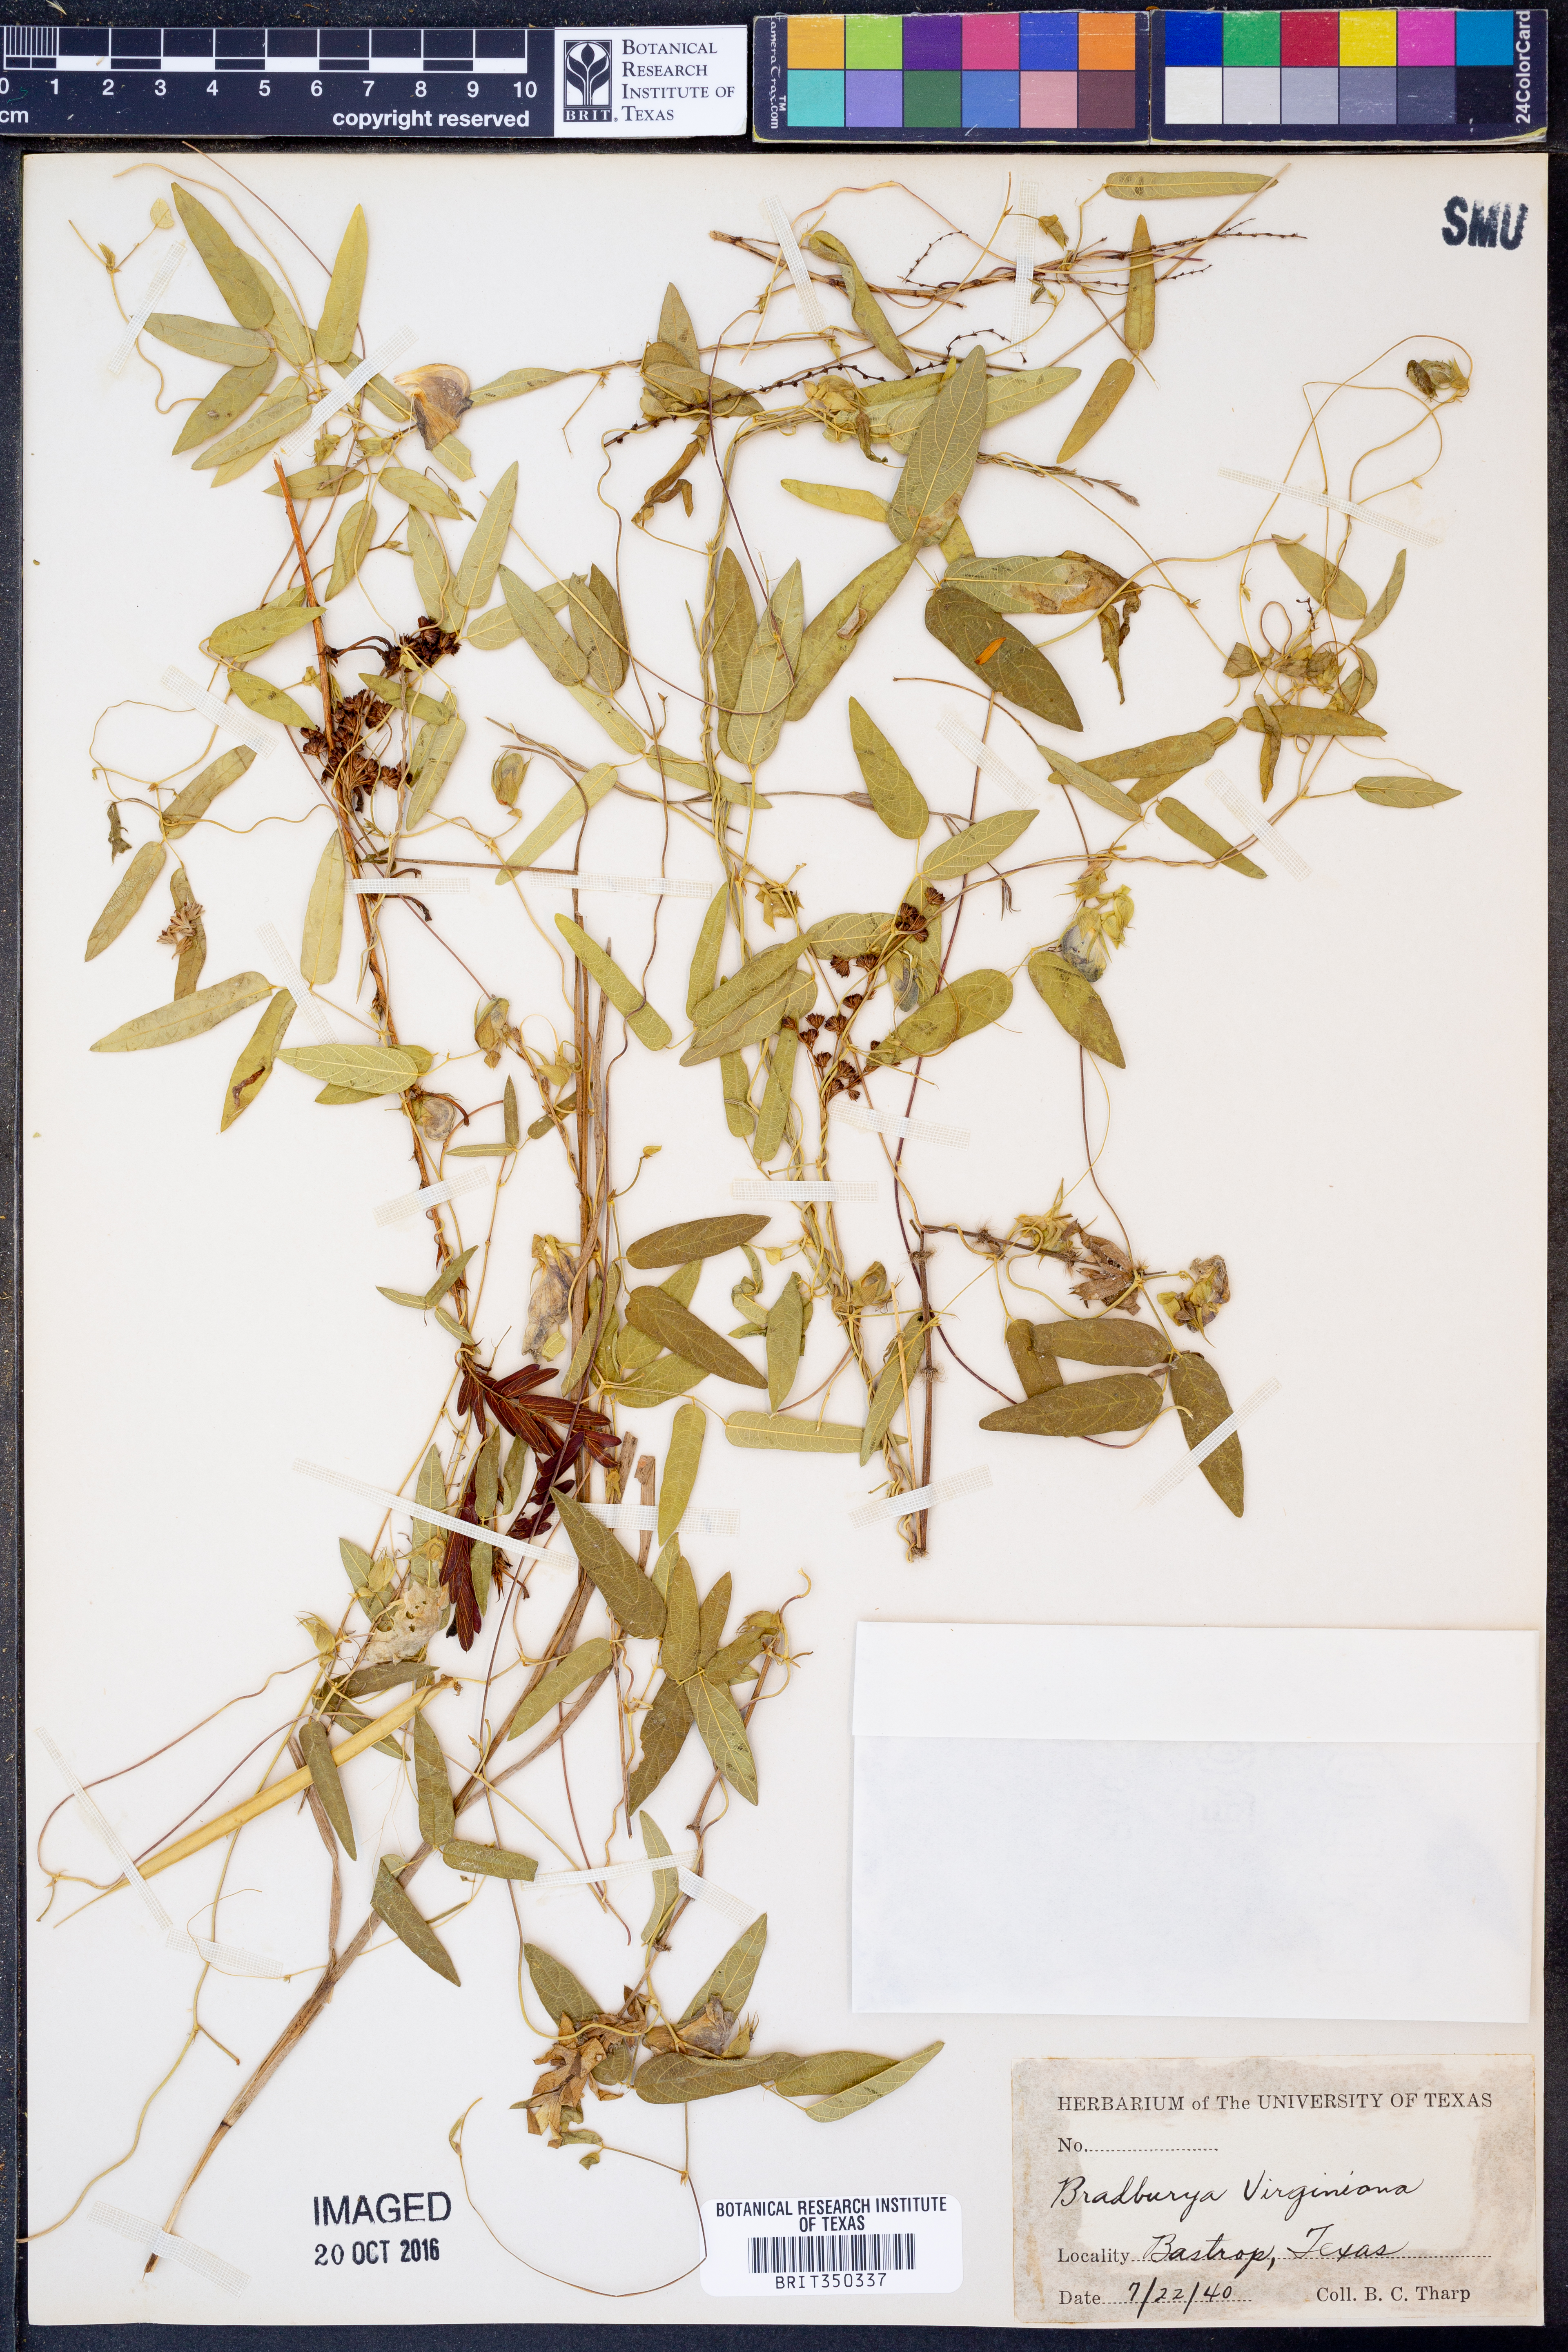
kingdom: Plantae
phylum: Tracheophyta
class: Magnoliopsida
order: Fabales
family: Fabaceae
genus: Centrosema
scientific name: Centrosema virginianum
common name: Butterfly-pea
